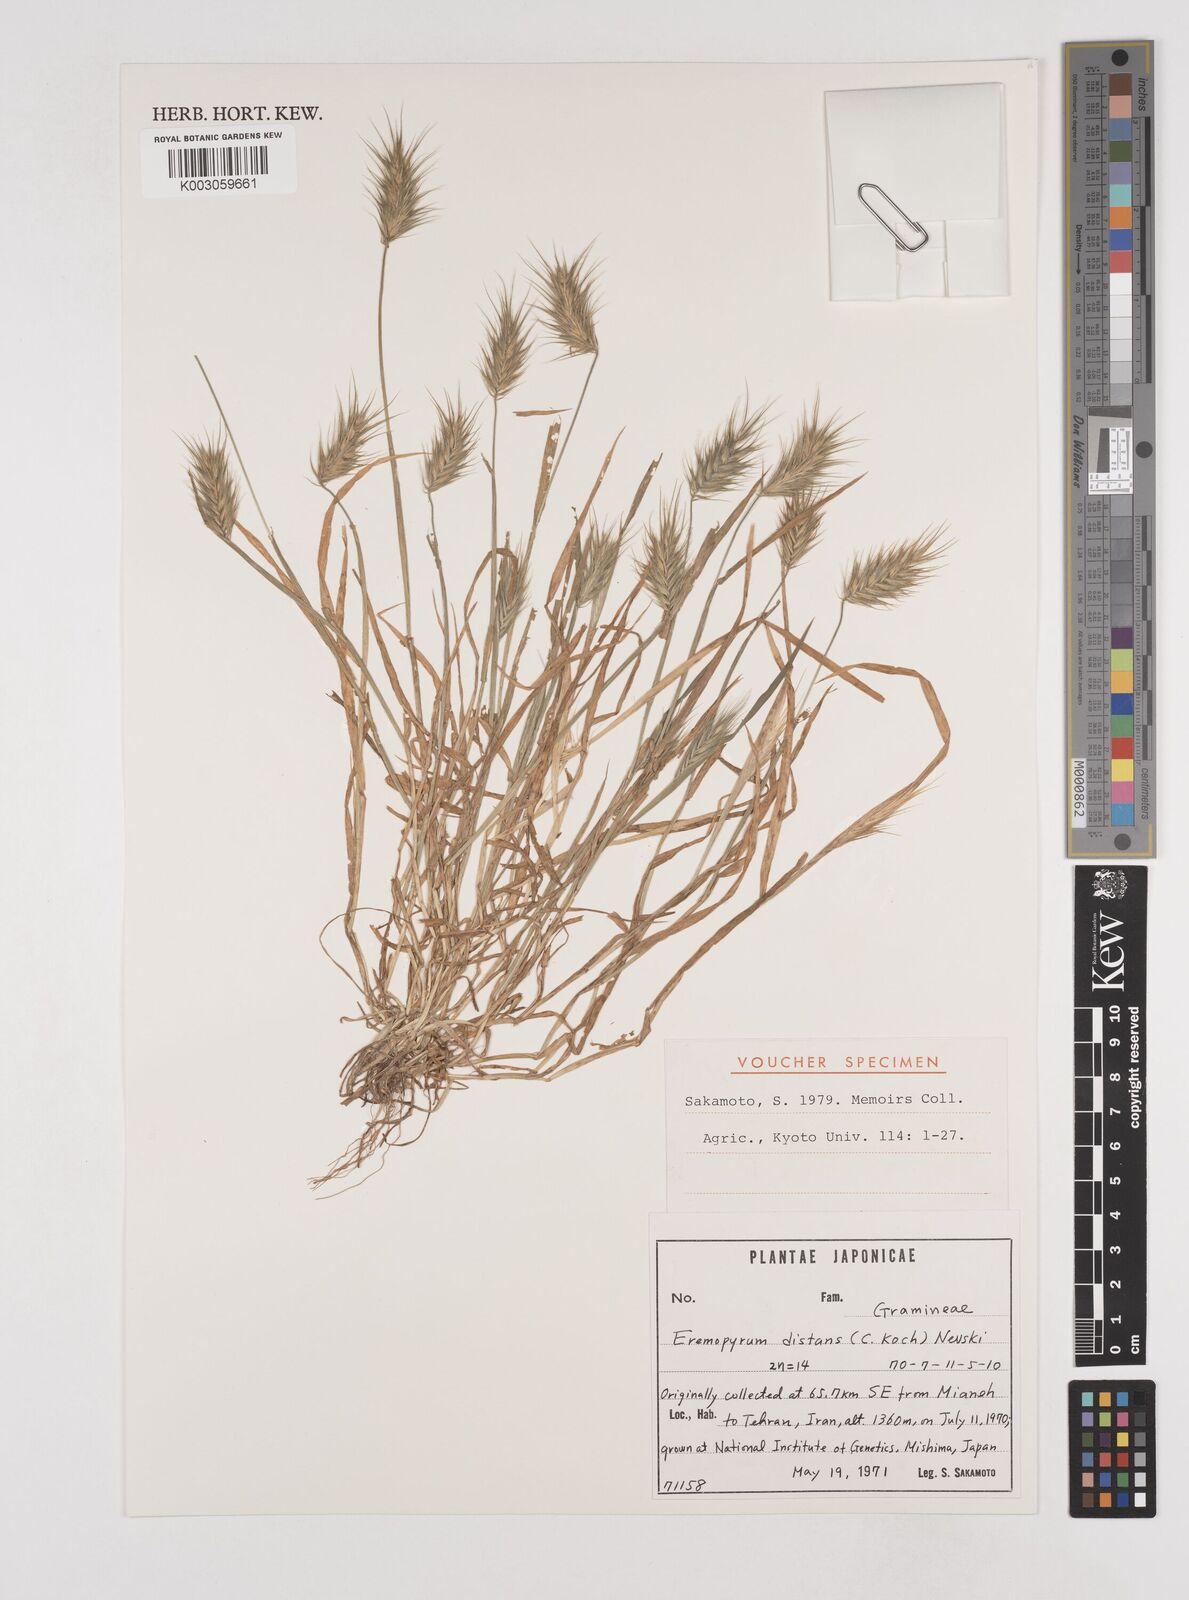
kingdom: Plantae
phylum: Tracheophyta
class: Liliopsida
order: Poales
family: Poaceae
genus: Eremopyrum
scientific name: Eremopyrum distans
